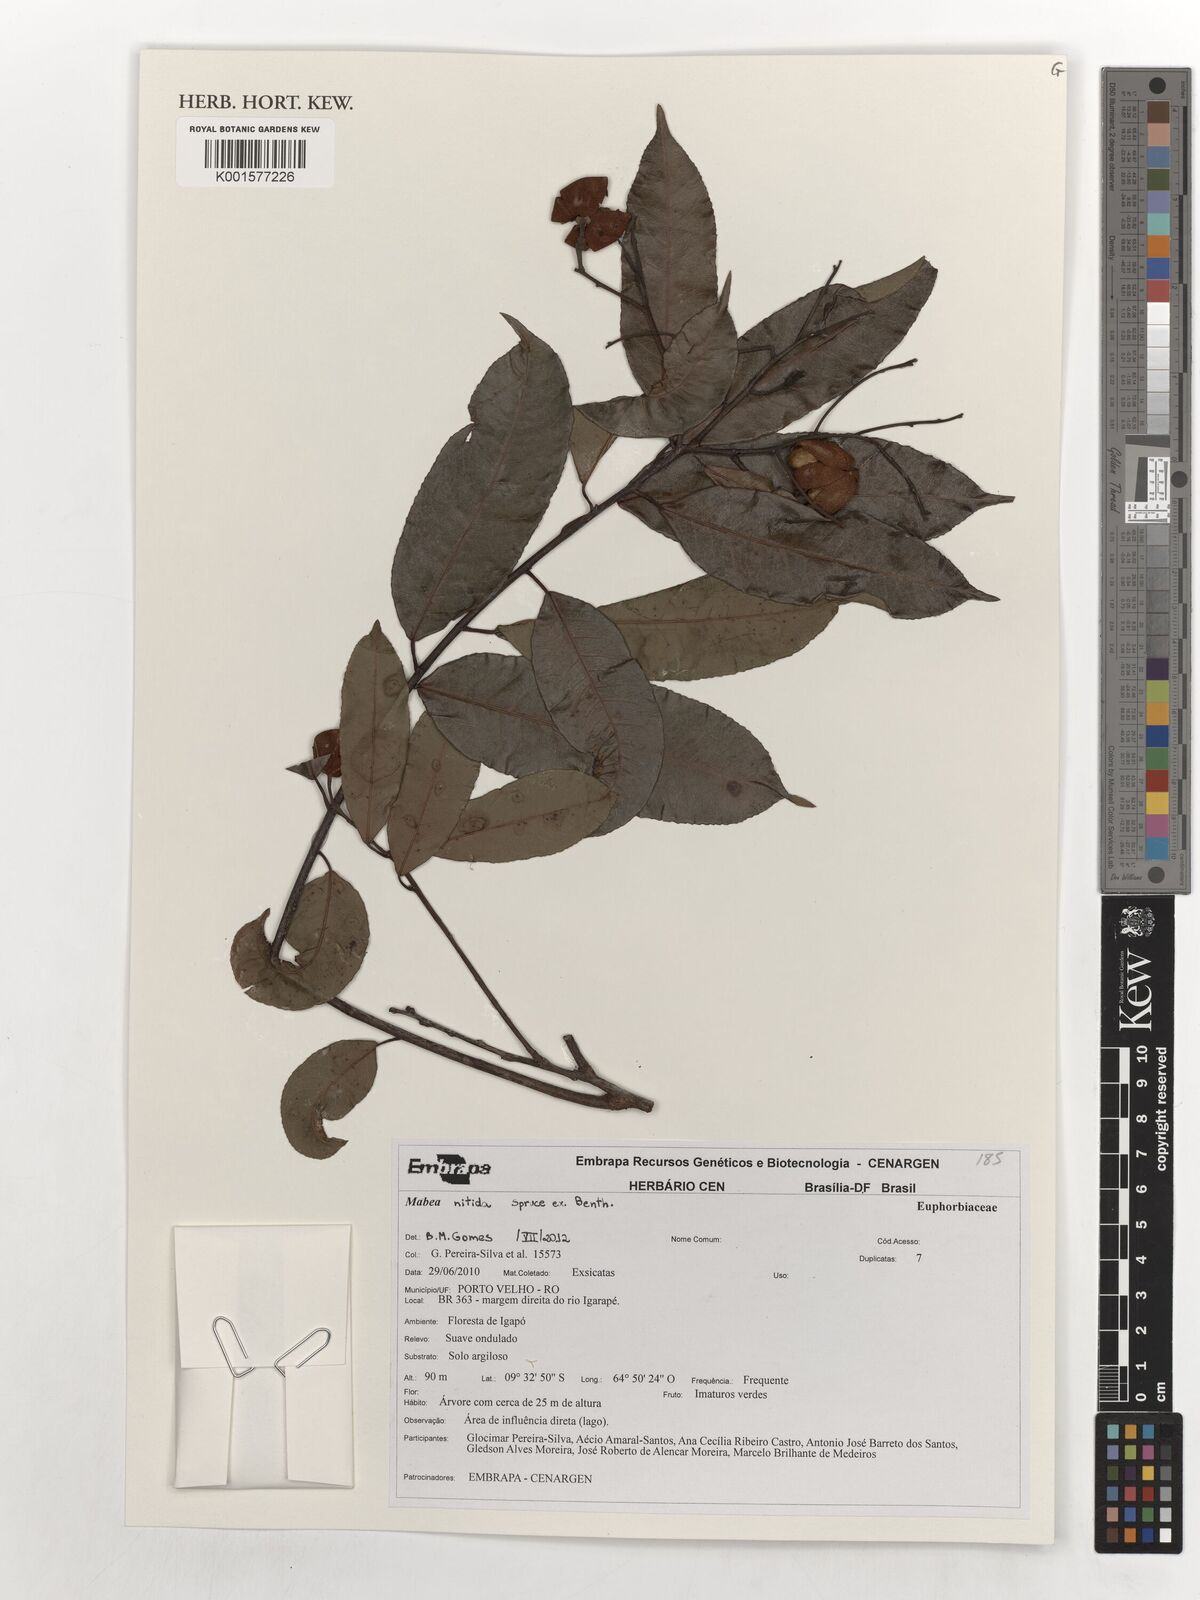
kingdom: Plantae
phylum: Tracheophyta
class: Magnoliopsida
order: Malpighiales
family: Euphorbiaceae
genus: Mabea
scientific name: Mabea nitida
